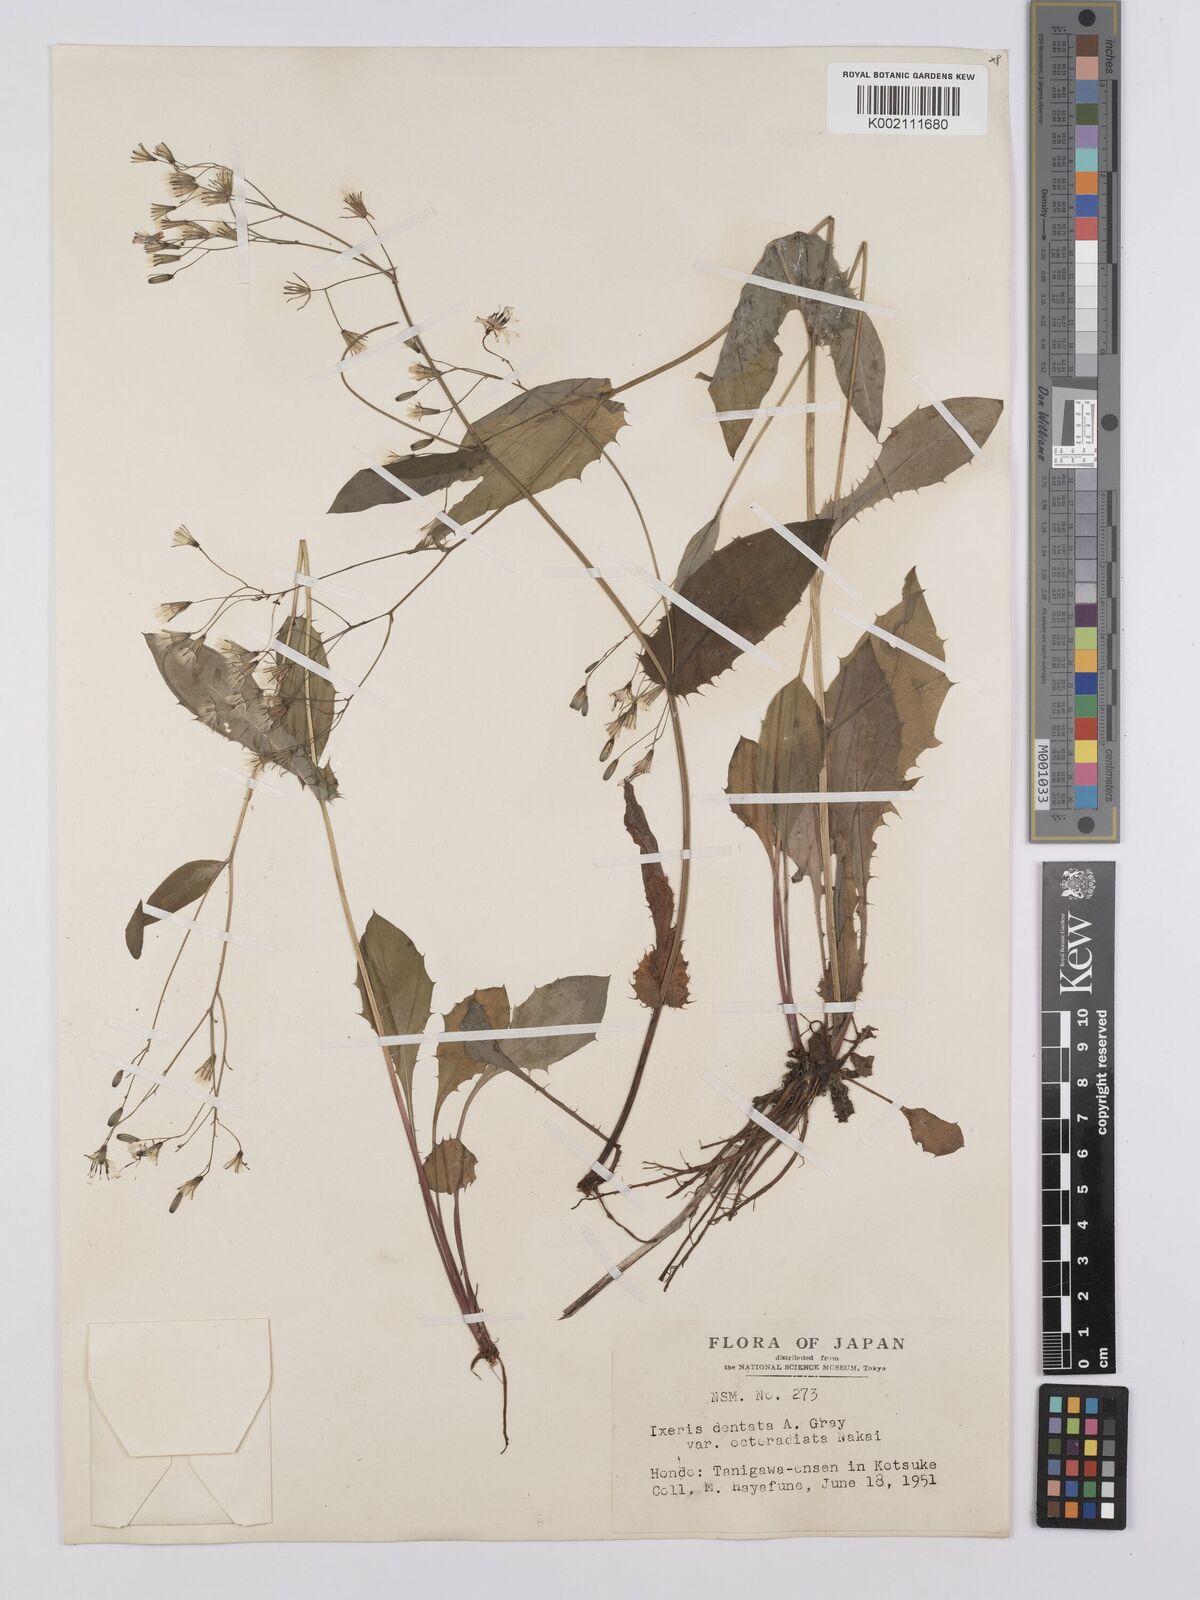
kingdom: Plantae
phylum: Tracheophyta
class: Magnoliopsida
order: Asterales
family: Asteraceae
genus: Ixeridium
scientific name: Ixeridium
